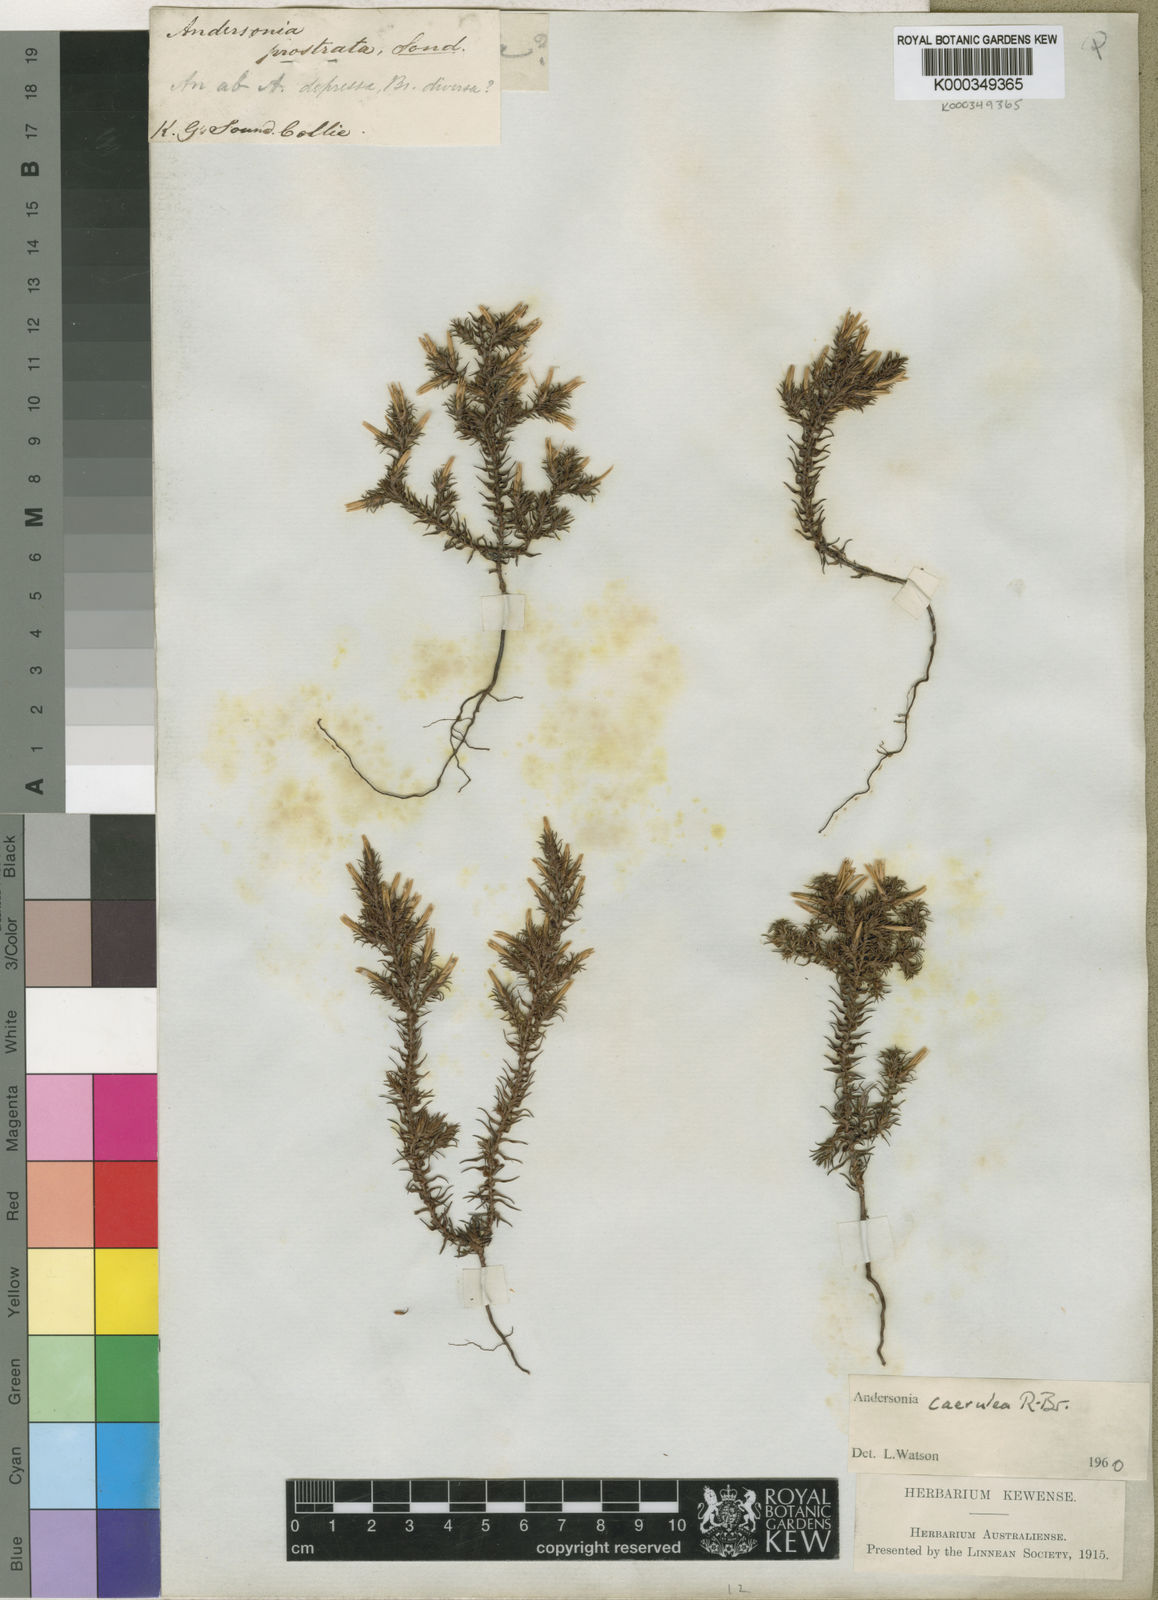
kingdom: Plantae
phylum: Tracheophyta
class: Magnoliopsida
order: Ericales
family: Ericaceae
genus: Andersonia
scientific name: Andersonia caerulea
